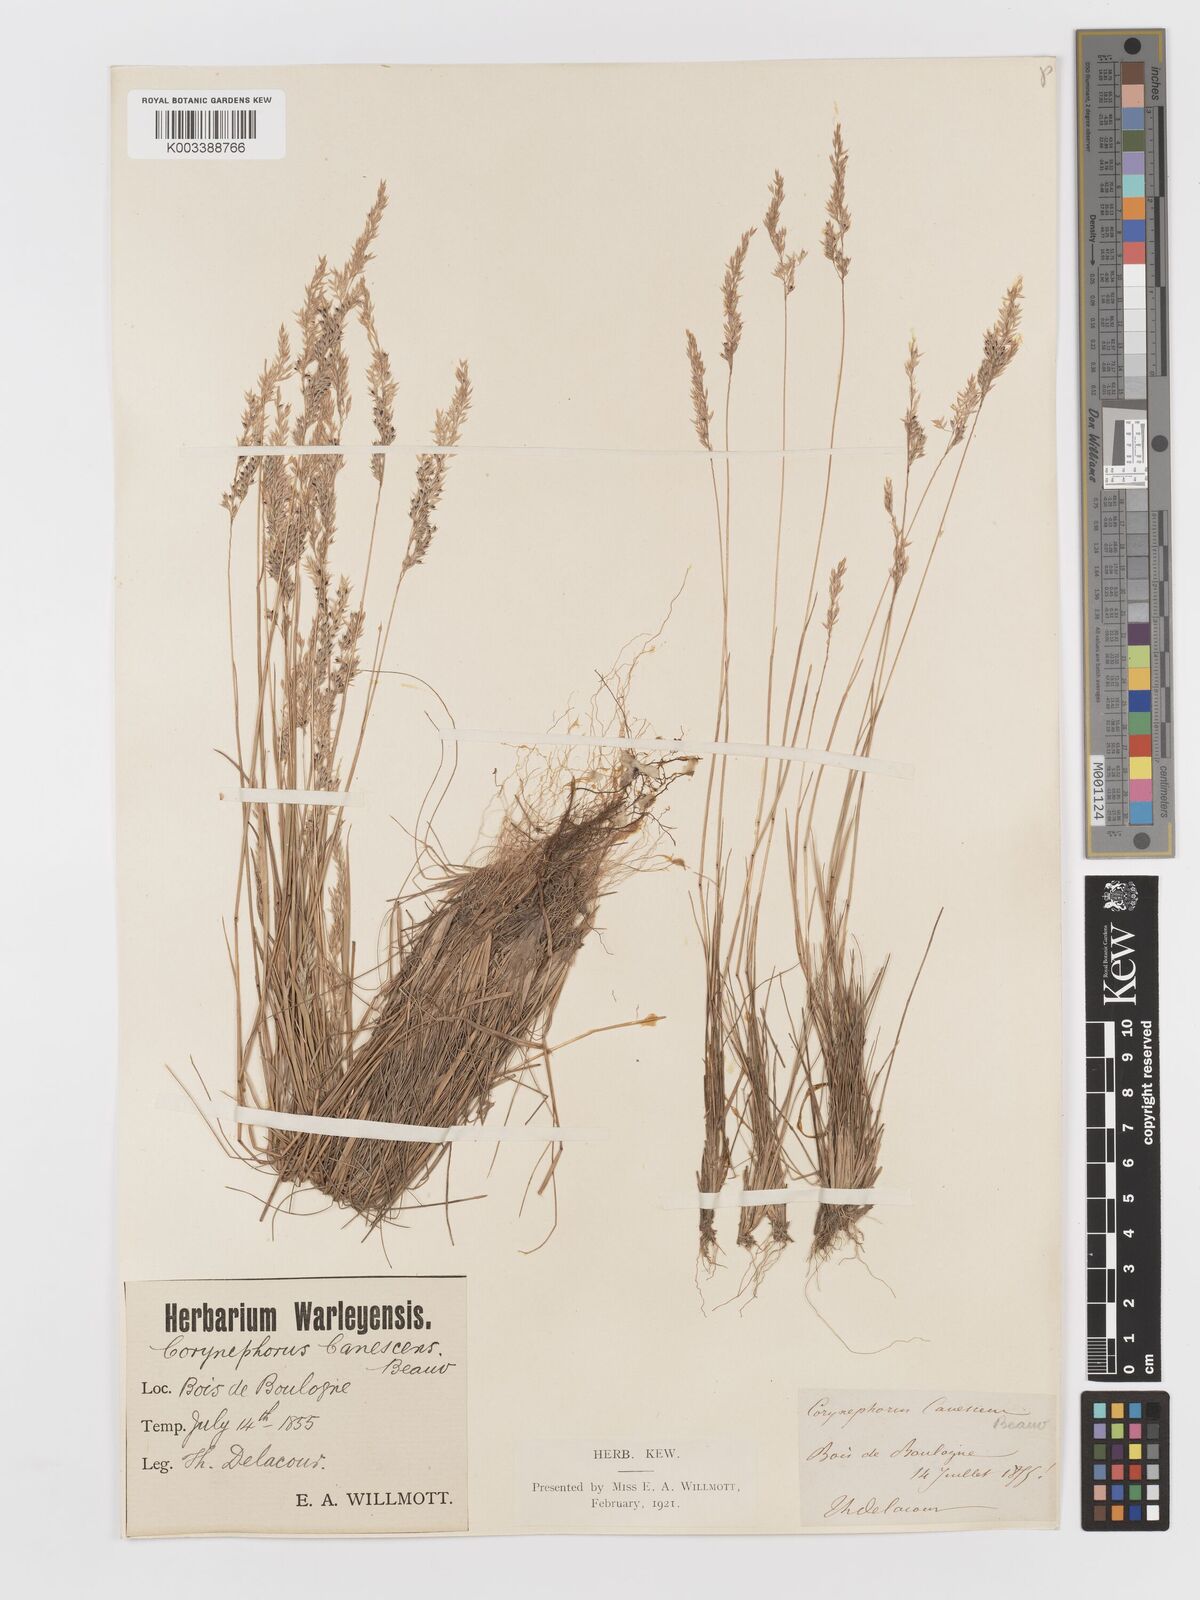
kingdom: Plantae
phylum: Tracheophyta
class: Liliopsida
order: Poales
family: Poaceae
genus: Corynephorus
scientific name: Corynephorus canescens
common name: Grey hair-grass
